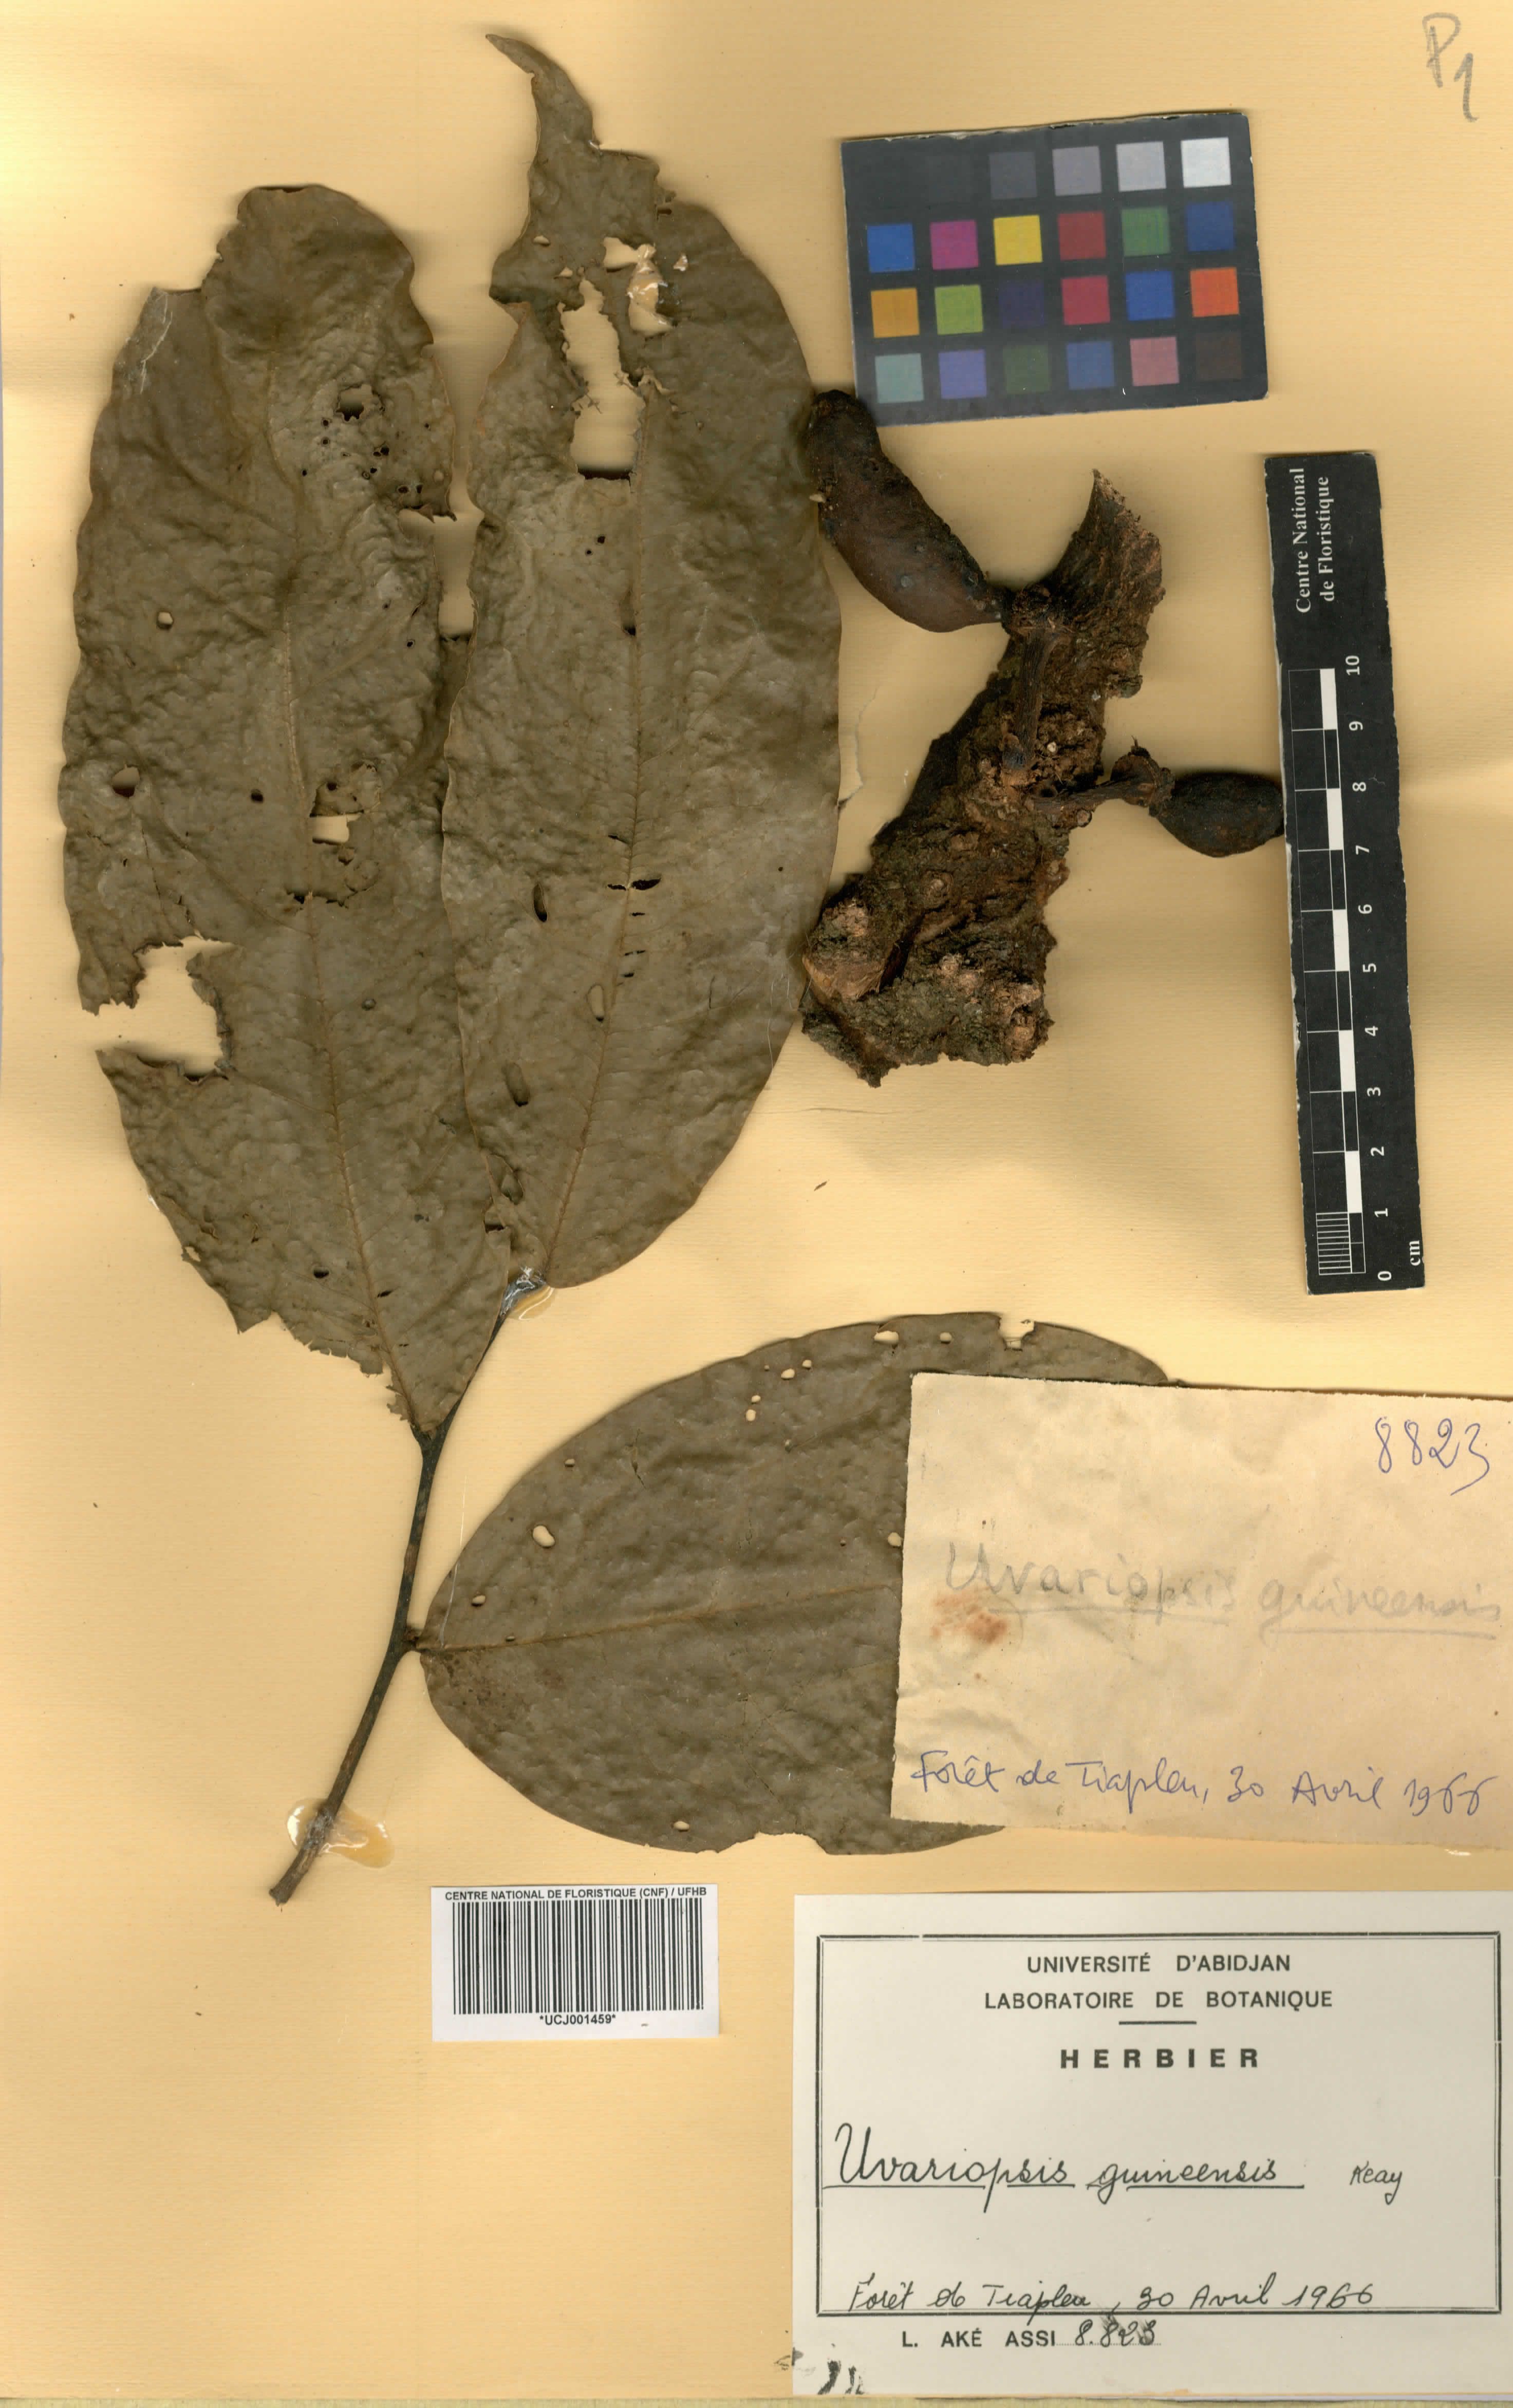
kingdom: Plantae
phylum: Tracheophyta
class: Magnoliopsida
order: Magnoliales
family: Annonaceae
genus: Uvariopsis
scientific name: Uvariopsis guineensis
